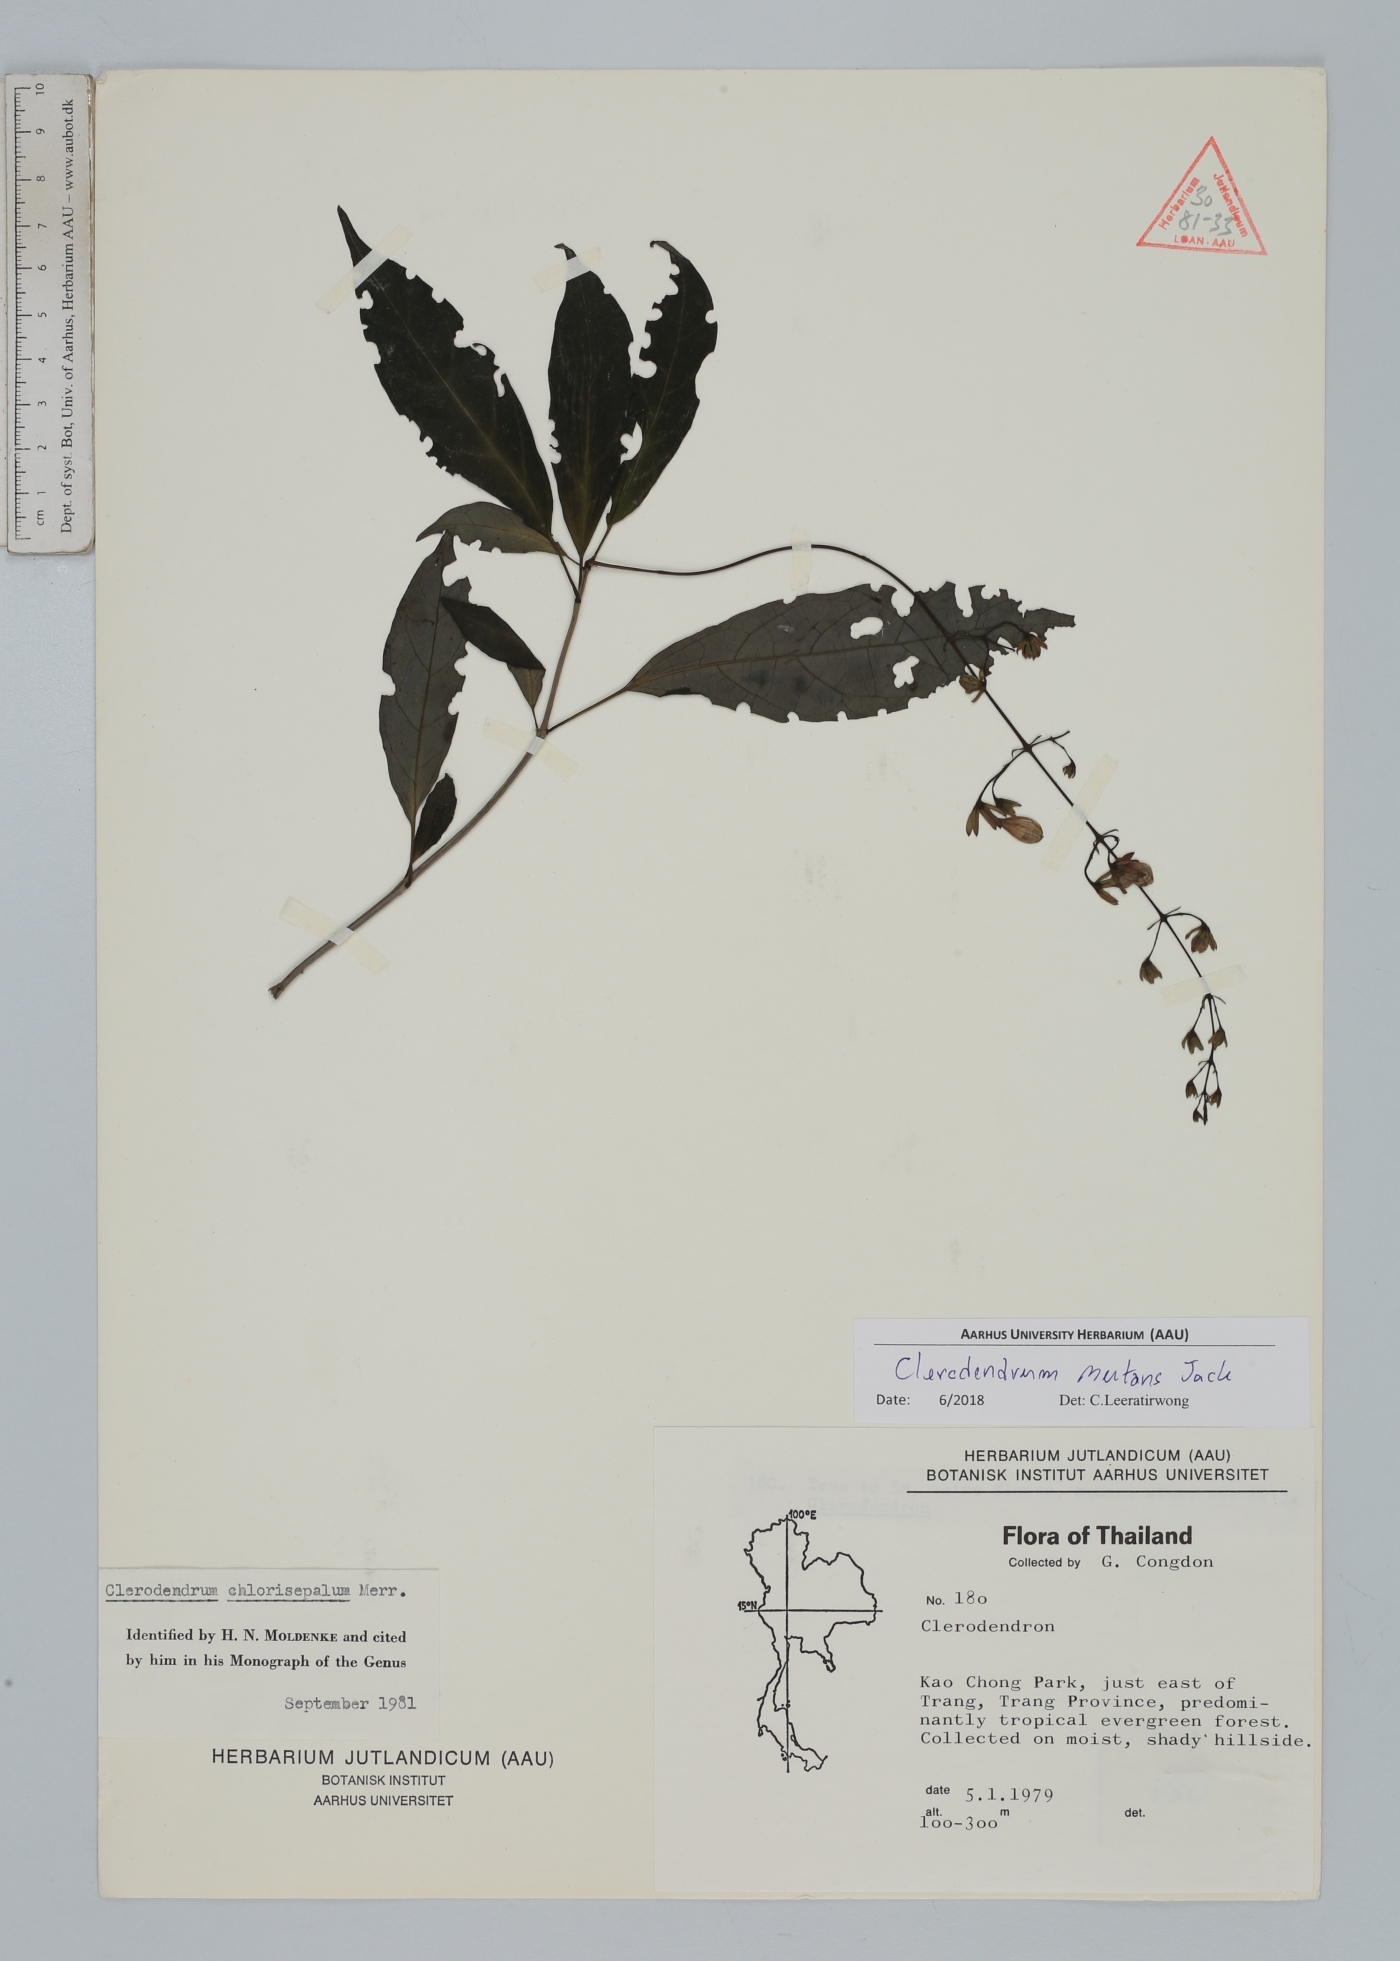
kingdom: Plantae
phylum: Tracheophyta
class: Magnoliopsida
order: Lamiales
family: Lamiaceae
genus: Clerodendrum
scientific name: Clerodendrum nutans
